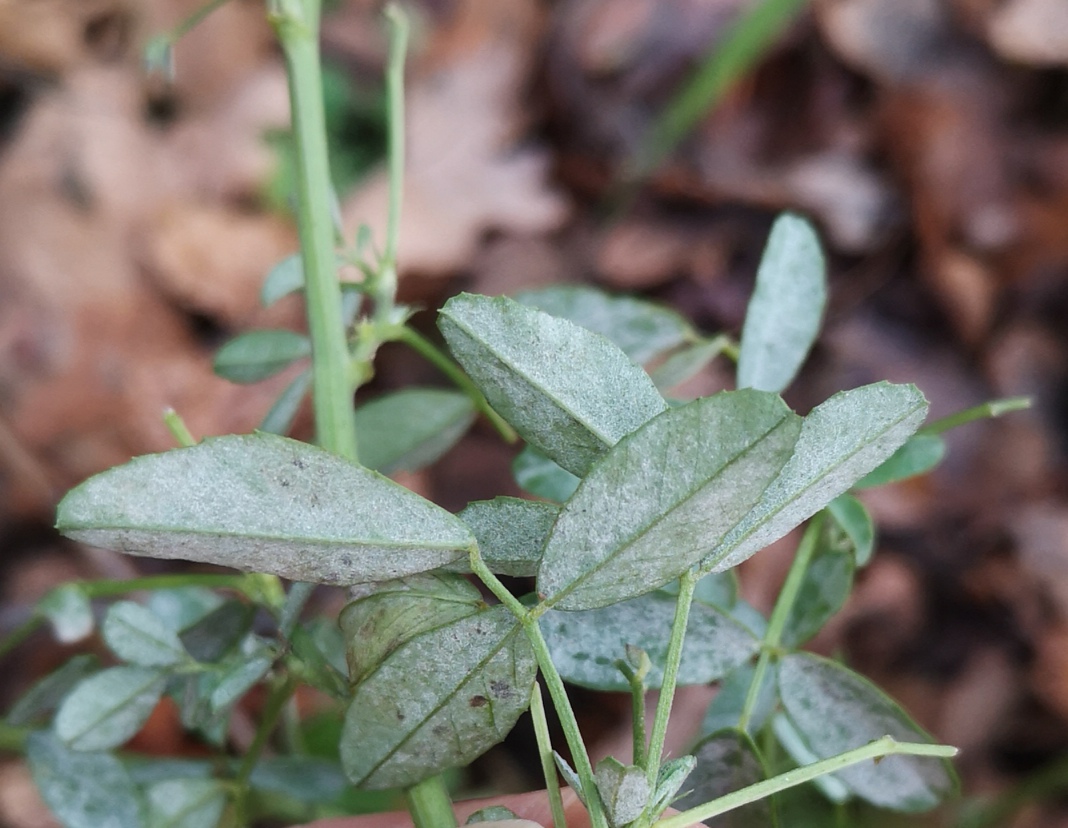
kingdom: Fungi
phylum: Ascomycota
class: Leotiomycetes
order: Helotiales
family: Erysiphaceae
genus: Erysiphe
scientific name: Erysiphe
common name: meldug
